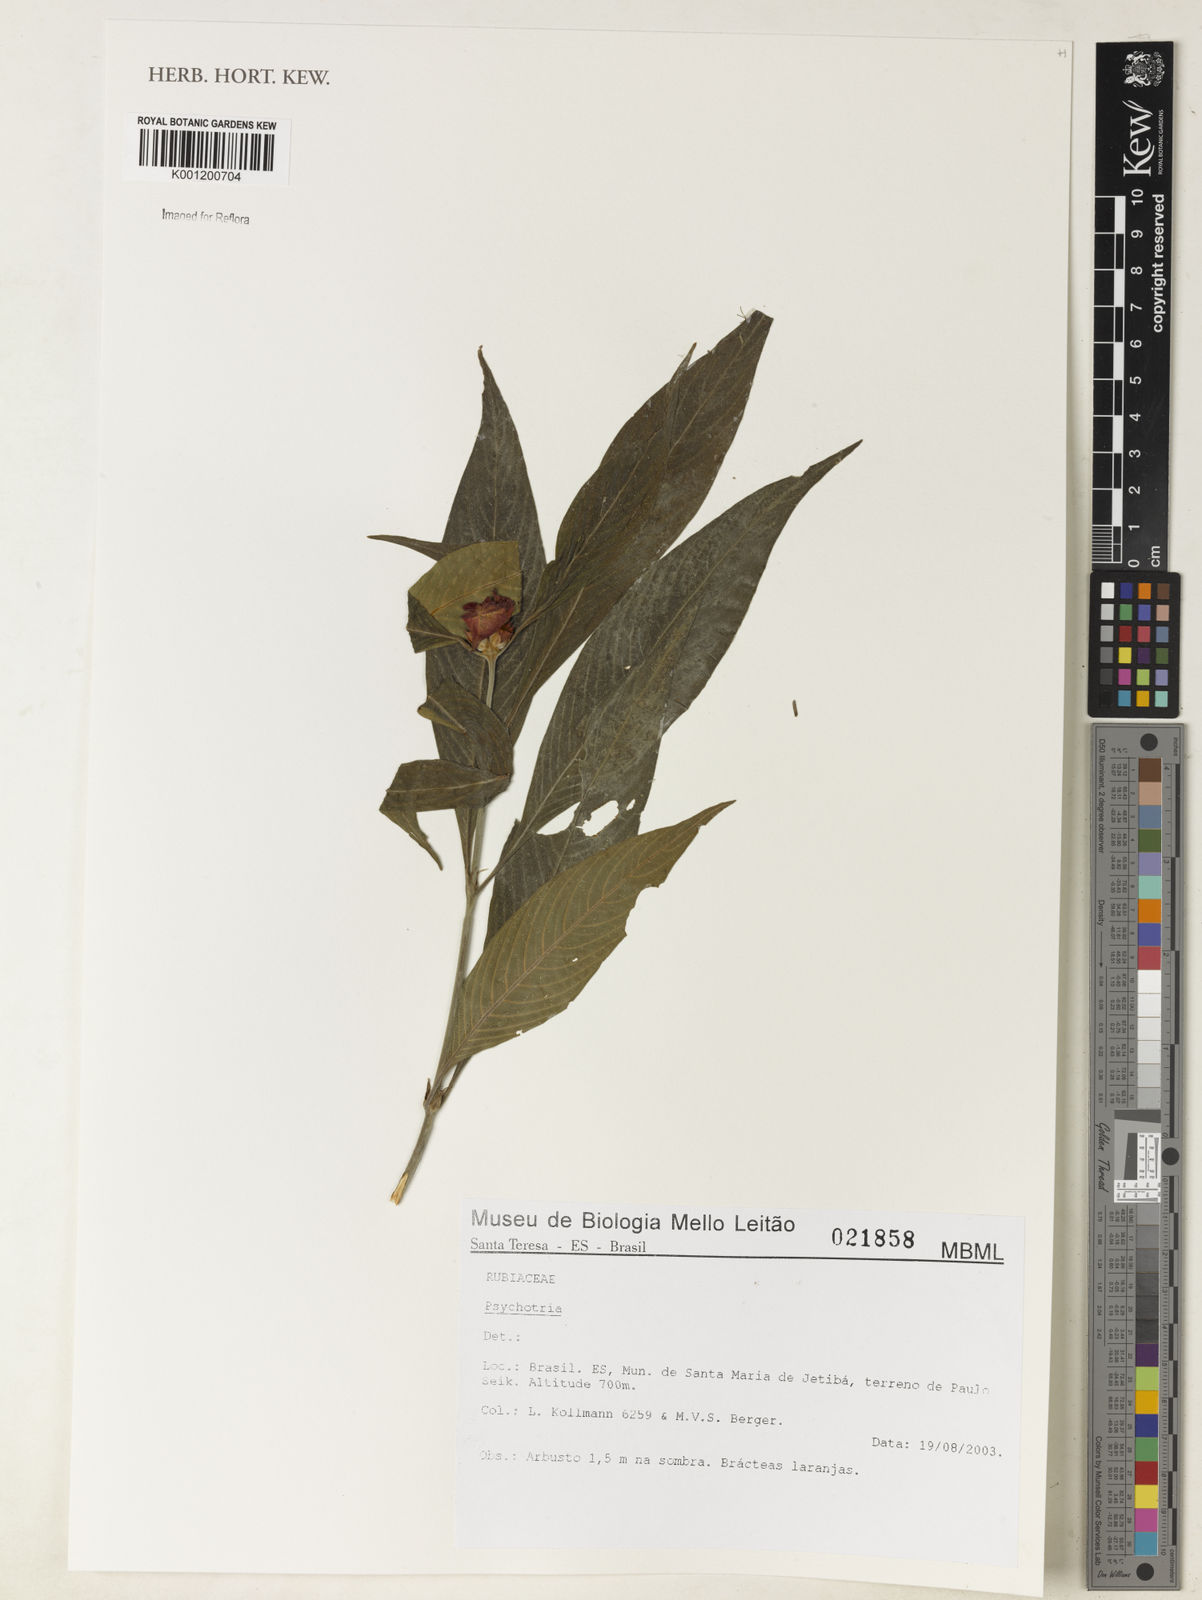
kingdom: Plantae
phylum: Tracheophyta
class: Magnoliopsida
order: Gentianales
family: Rubiaceae
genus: Psychotria
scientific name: Psychotria
